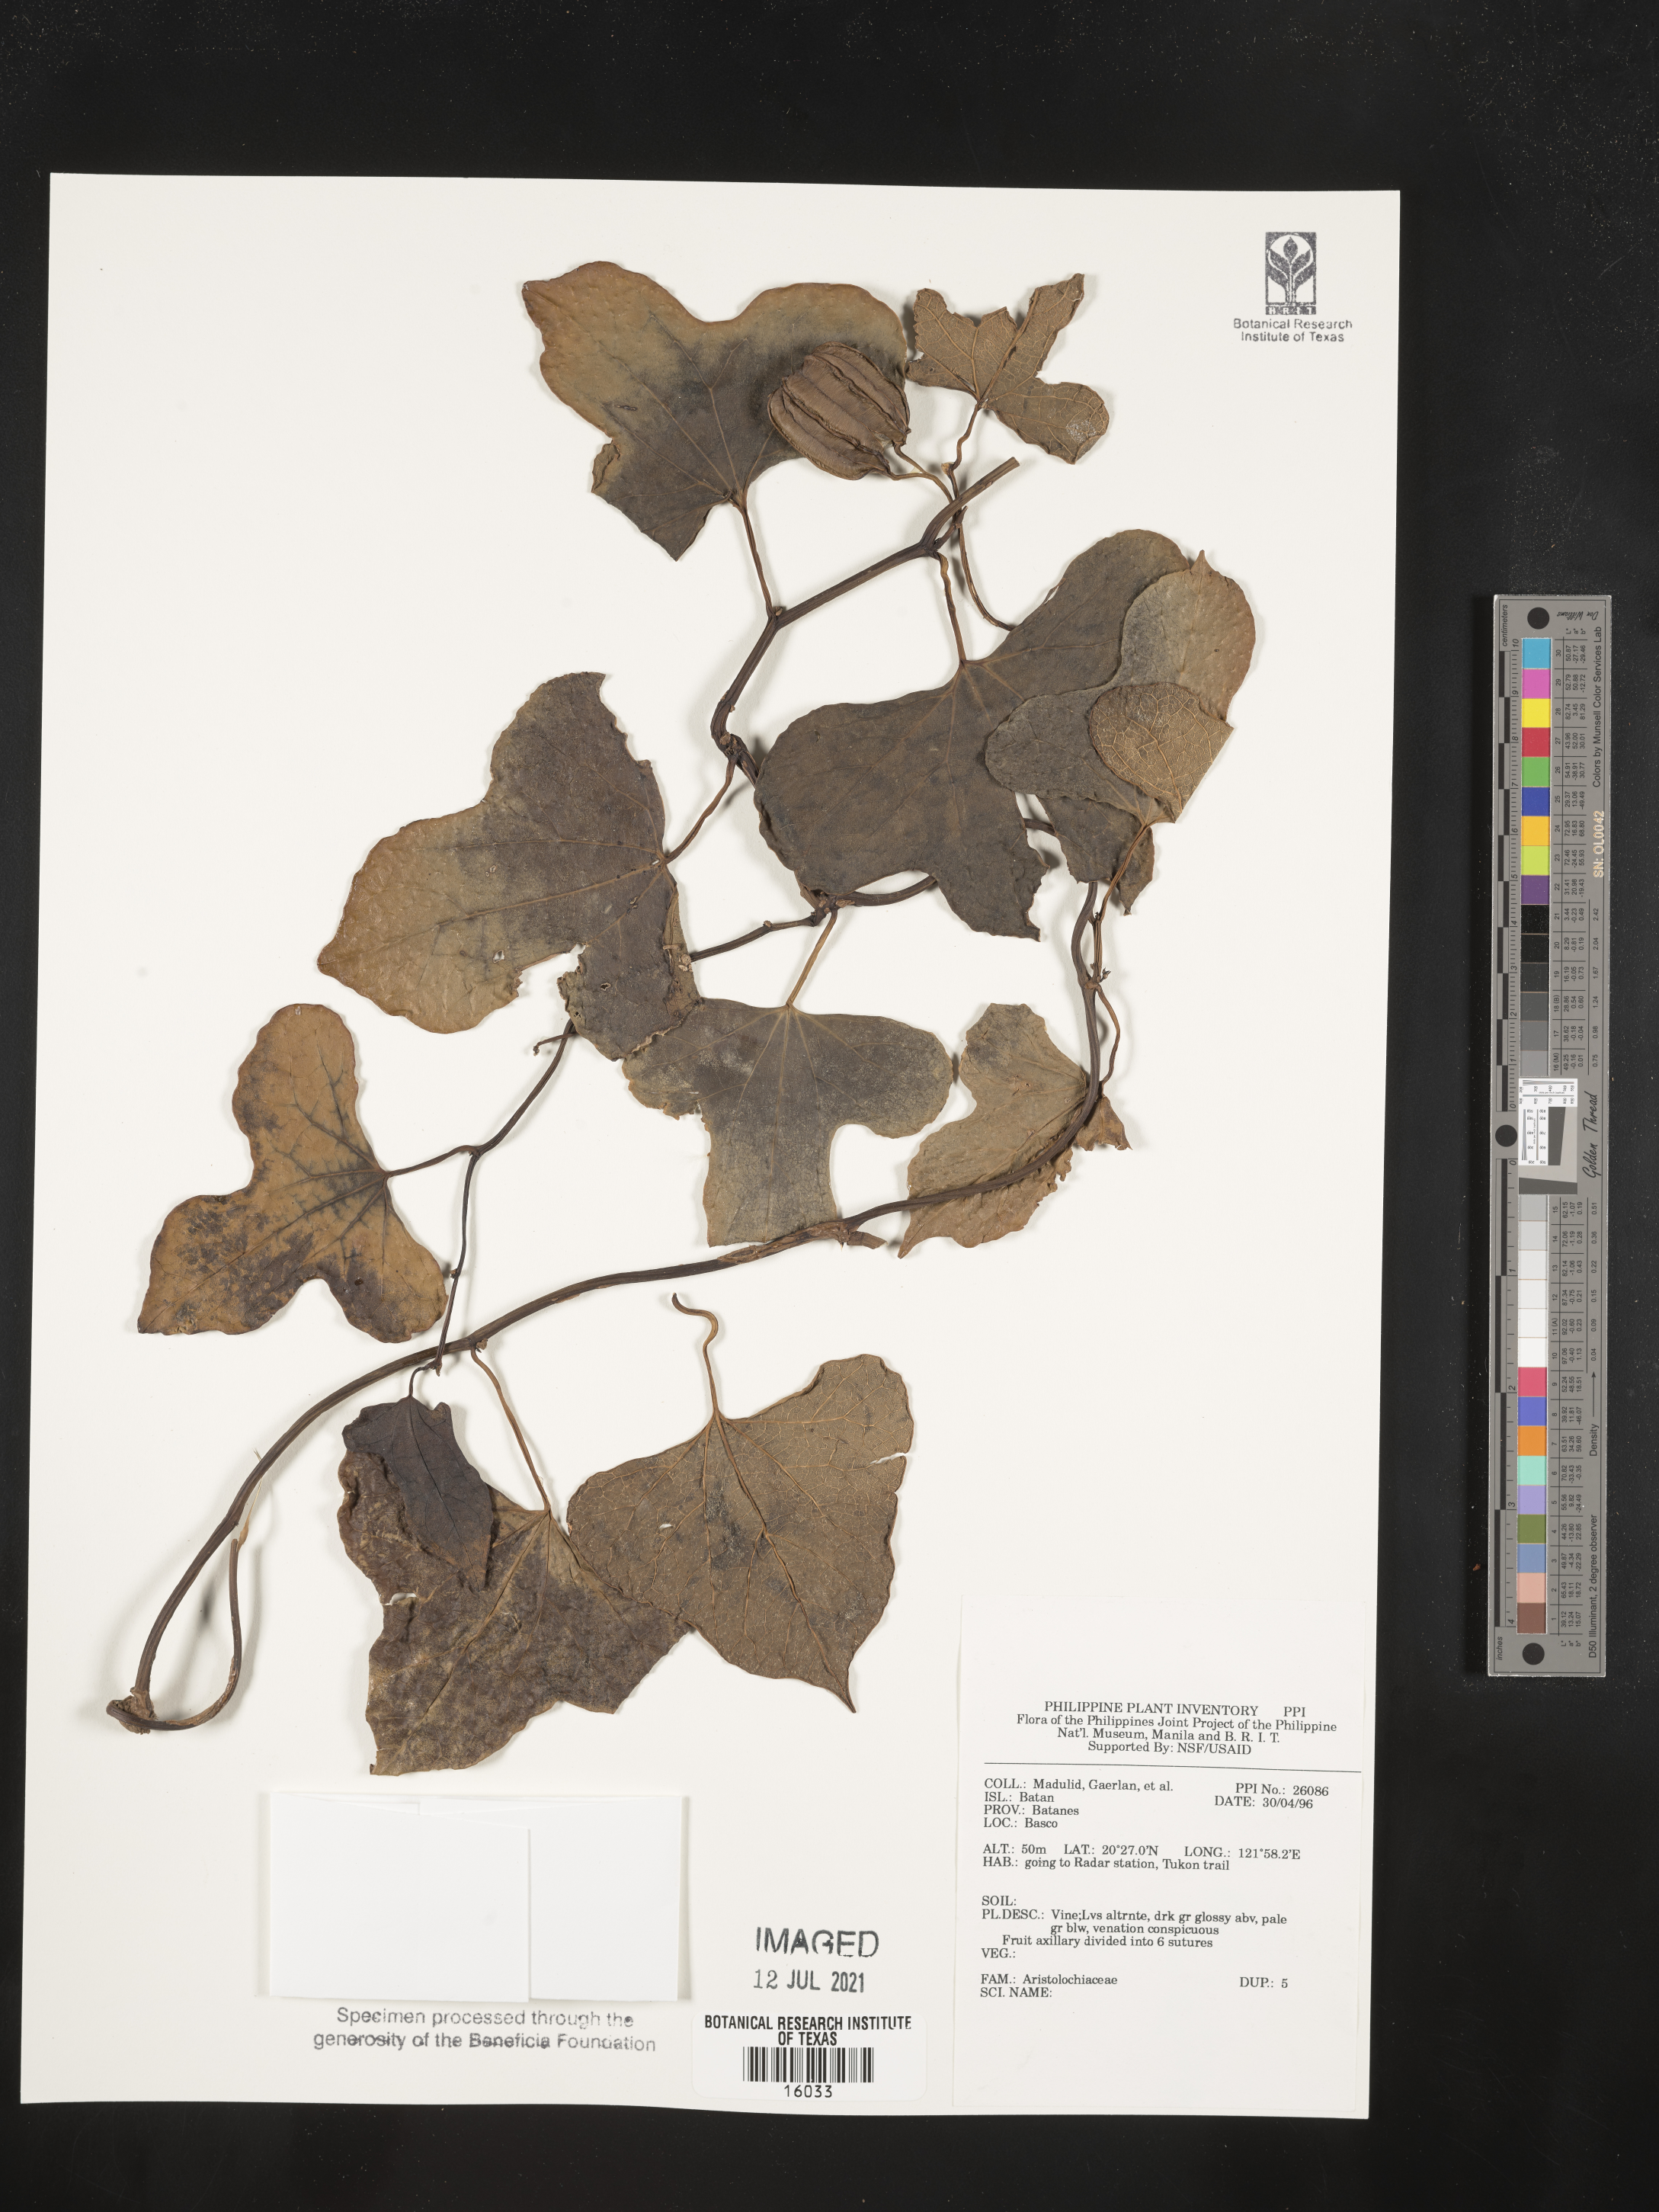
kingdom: Plantae
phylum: Tracheophyta
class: Magnoliopsida
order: Piperales
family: Aristolochiaceae
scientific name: Aristolochiaceae
